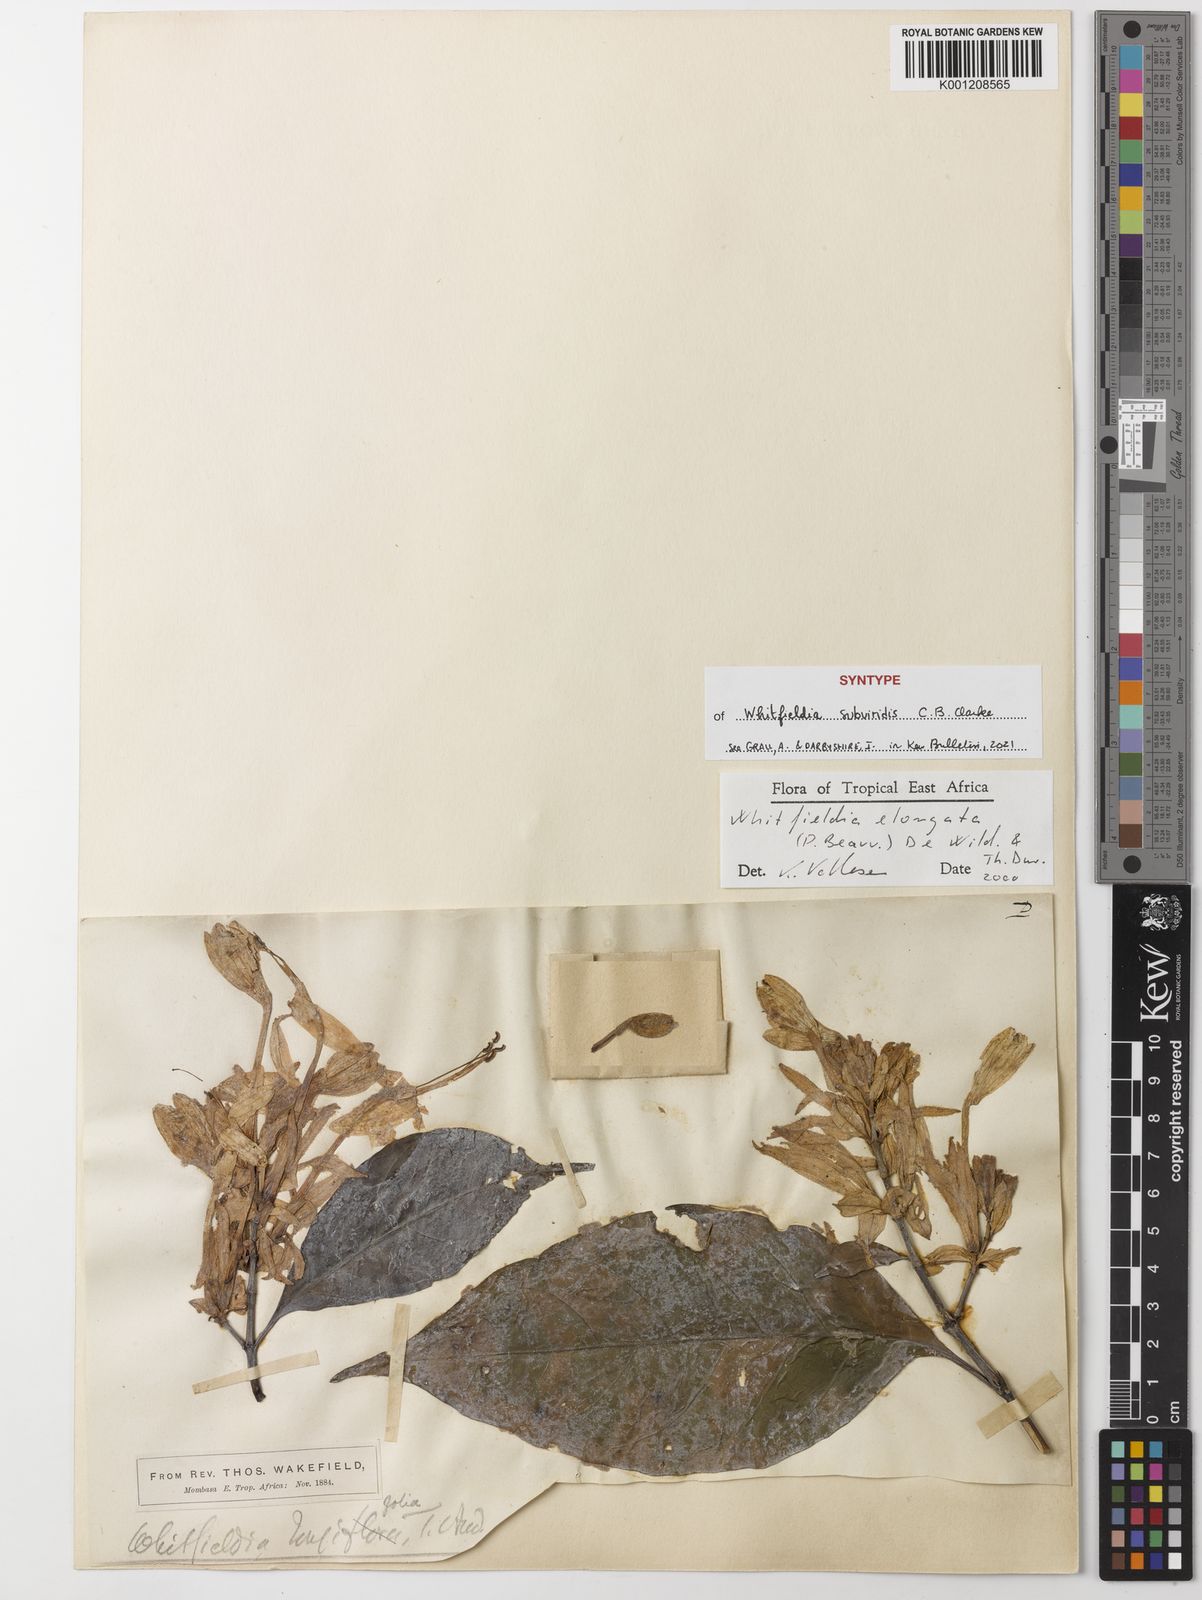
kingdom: Plantae
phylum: Tracheophyta
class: Magnoliopsida
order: Lamiales
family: Acanthaceae
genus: Whitfieldia
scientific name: Whitfieldia
